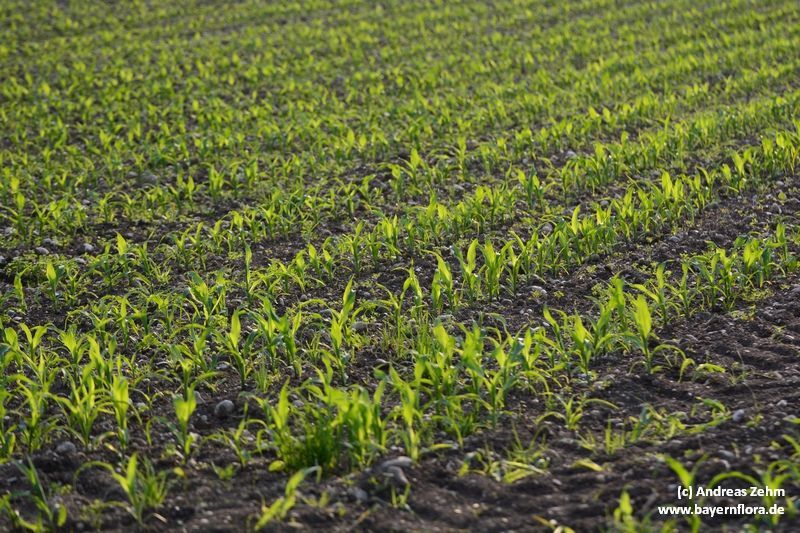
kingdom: Plantae
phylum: Tracheophyta
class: Liliopsida
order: Poales
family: Poaceae
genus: Zea
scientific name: Zea mays
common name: Maize
